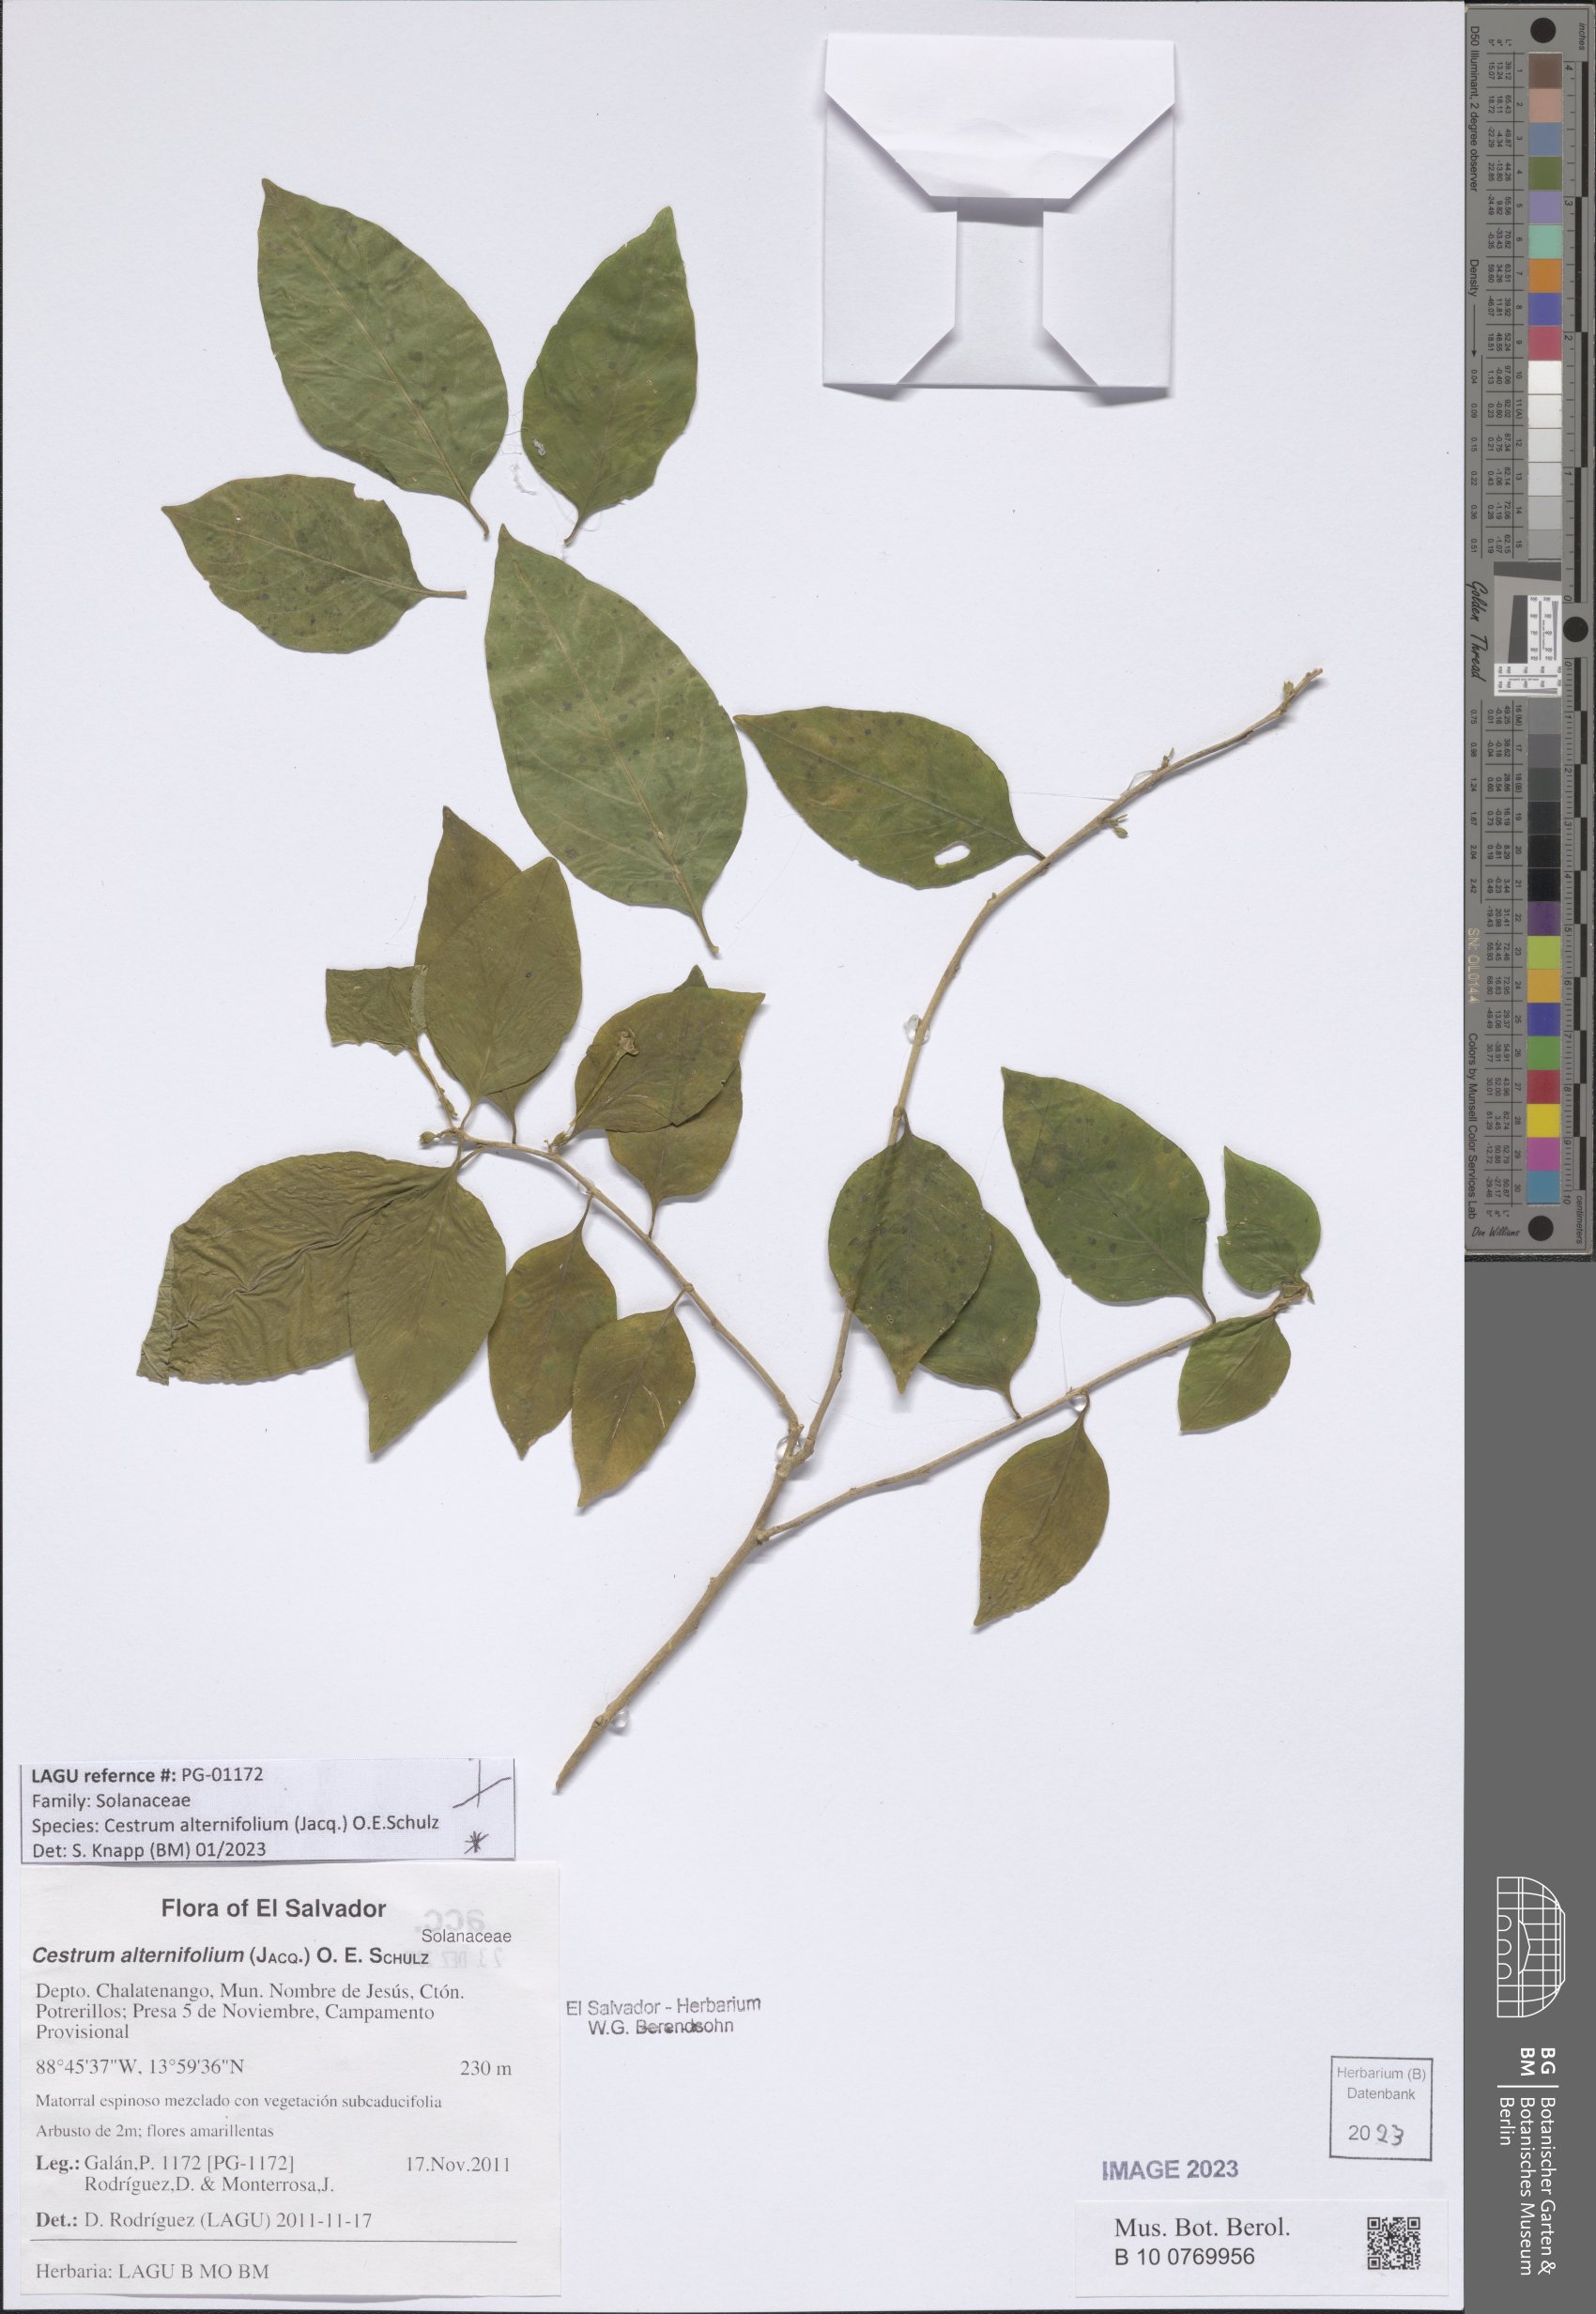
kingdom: Plantae
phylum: Tracheophyta
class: Magnoliopsida
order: Solanales
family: Solanaceae
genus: Cestrum
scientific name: Cestrum alternifolium
